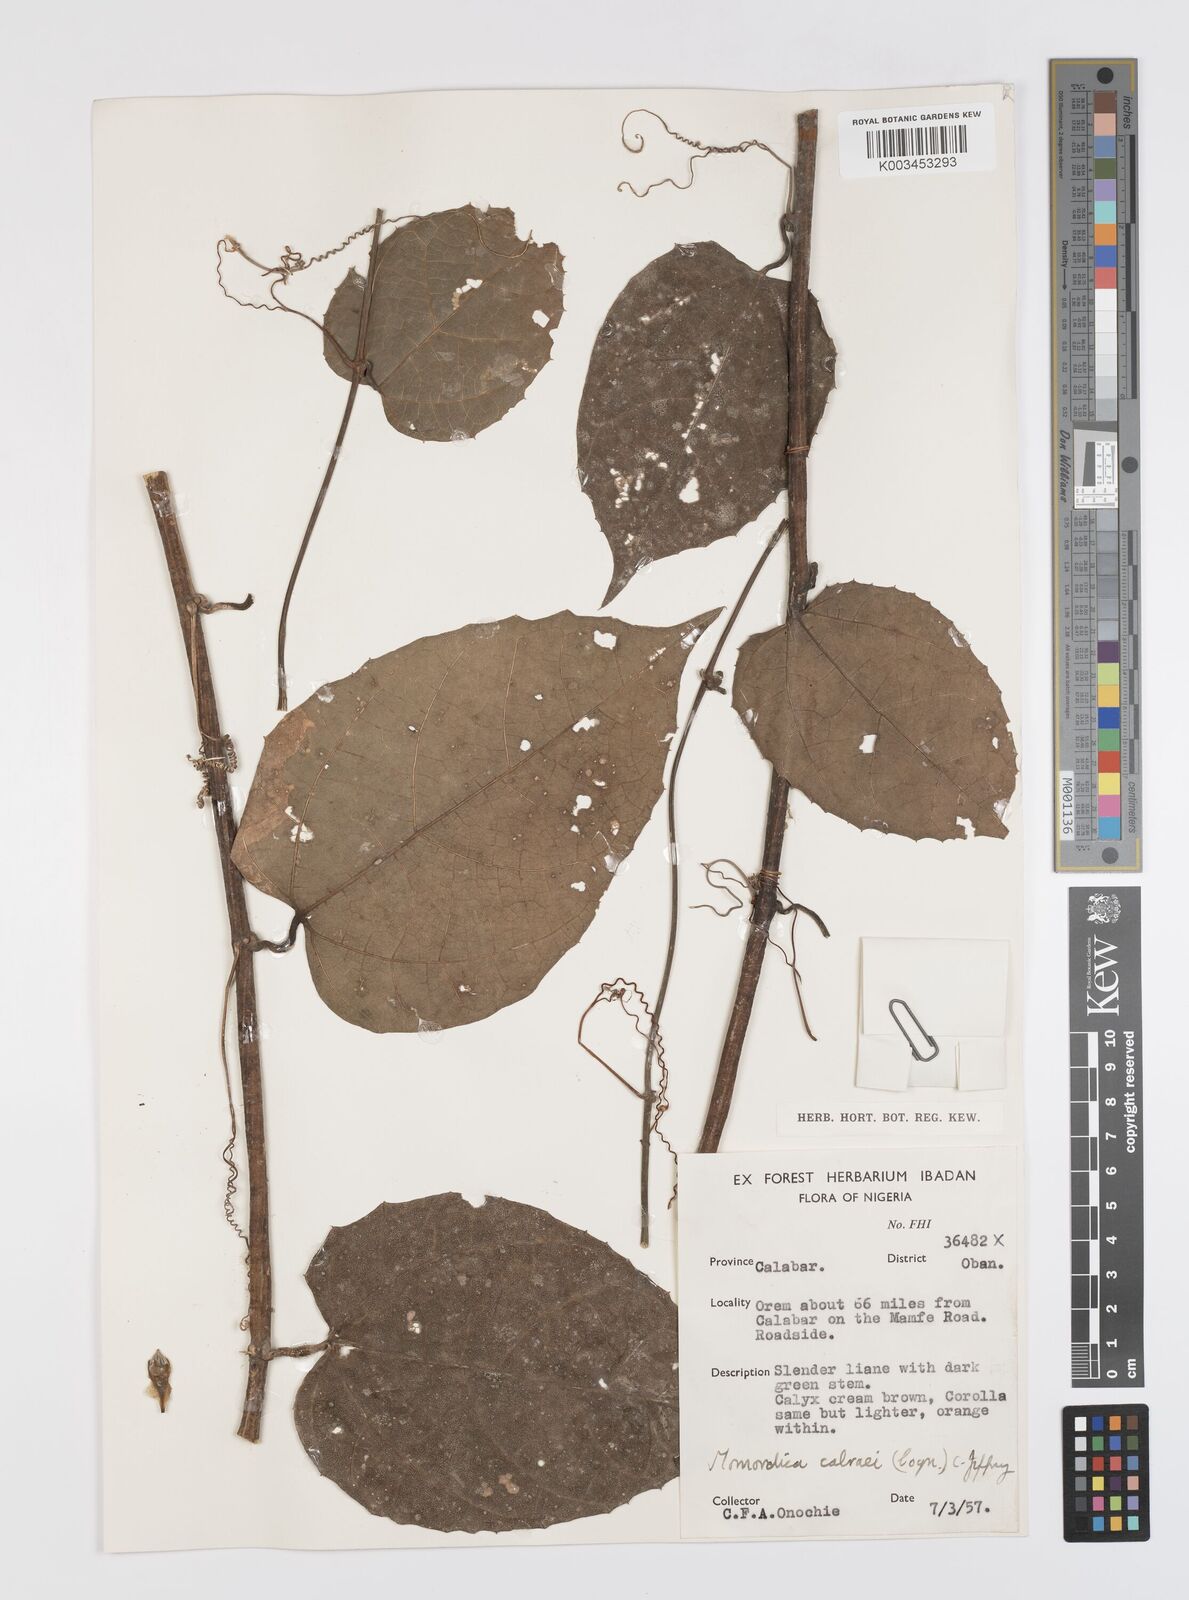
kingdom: Plantae
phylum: Tracheophyta
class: Magnoliopsida
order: Cucurbitales
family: Cucurbitaceae
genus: Momordica
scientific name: Momordica cabrae
